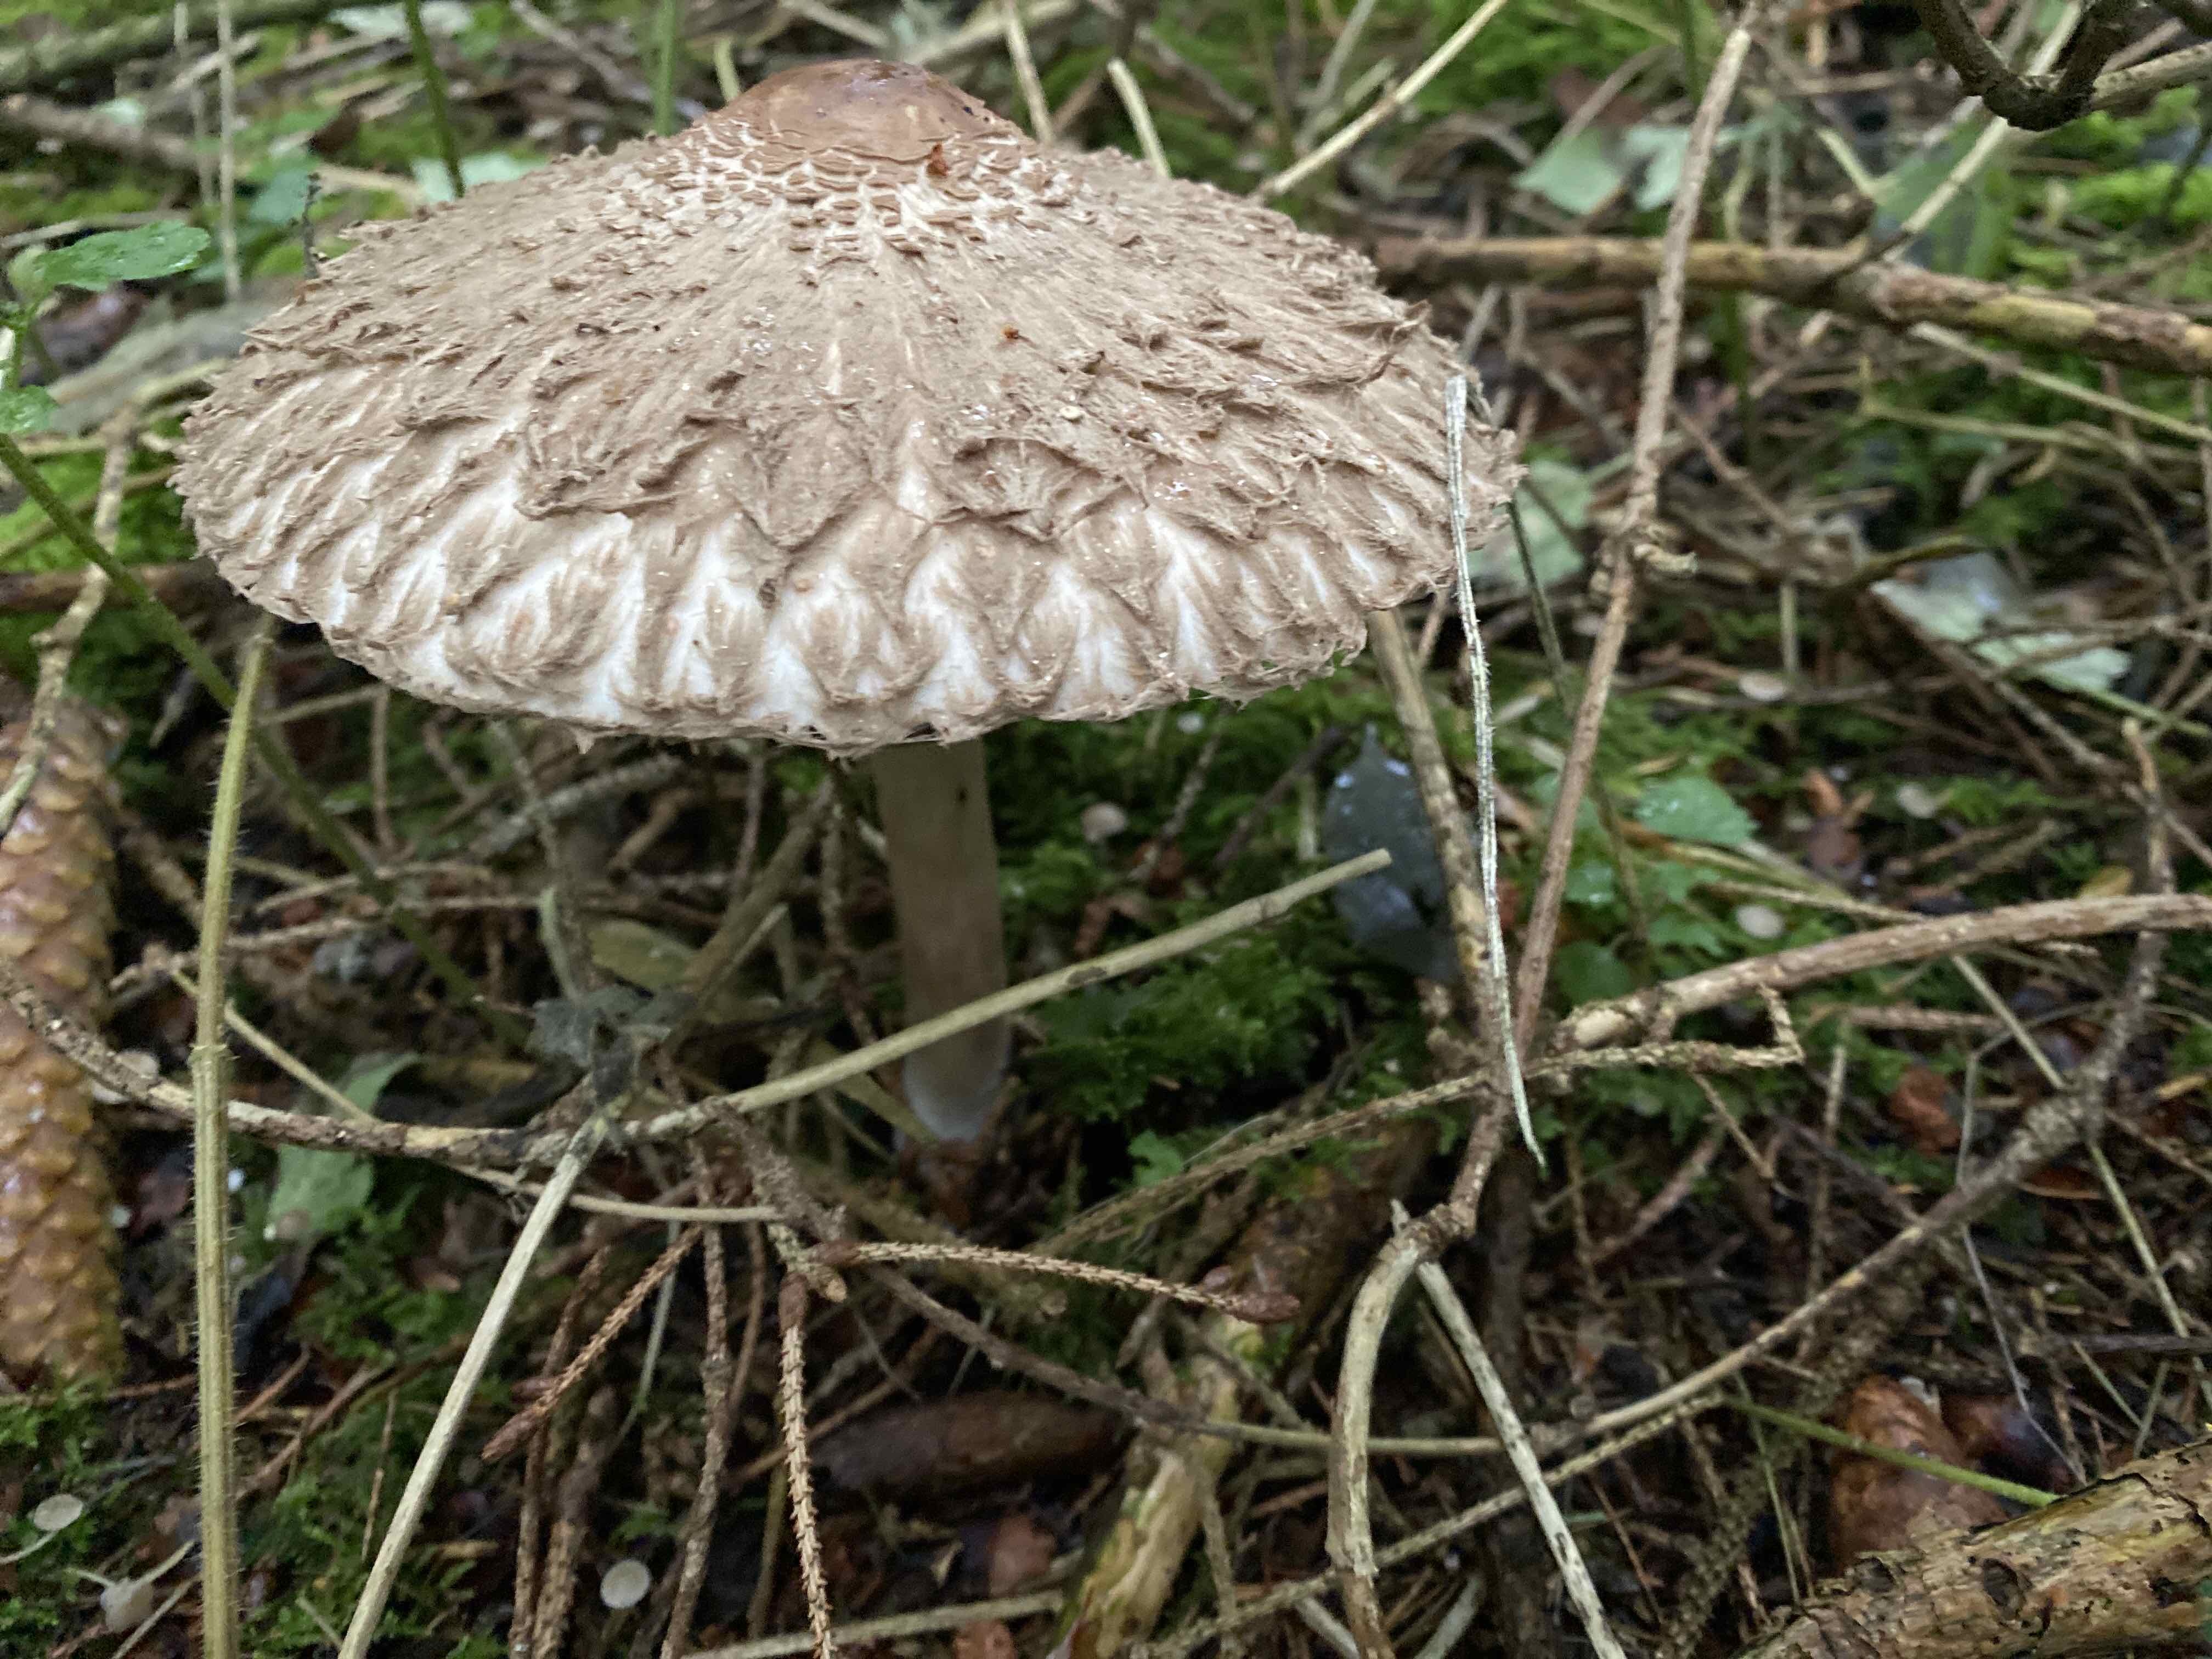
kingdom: Fungi
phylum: Basidiomycota
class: Agaricomycetes
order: Agaricales
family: Agaricaceae
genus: Chlorophyllum
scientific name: Chlorophyllum olivieri
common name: almindelig rabarberhat
